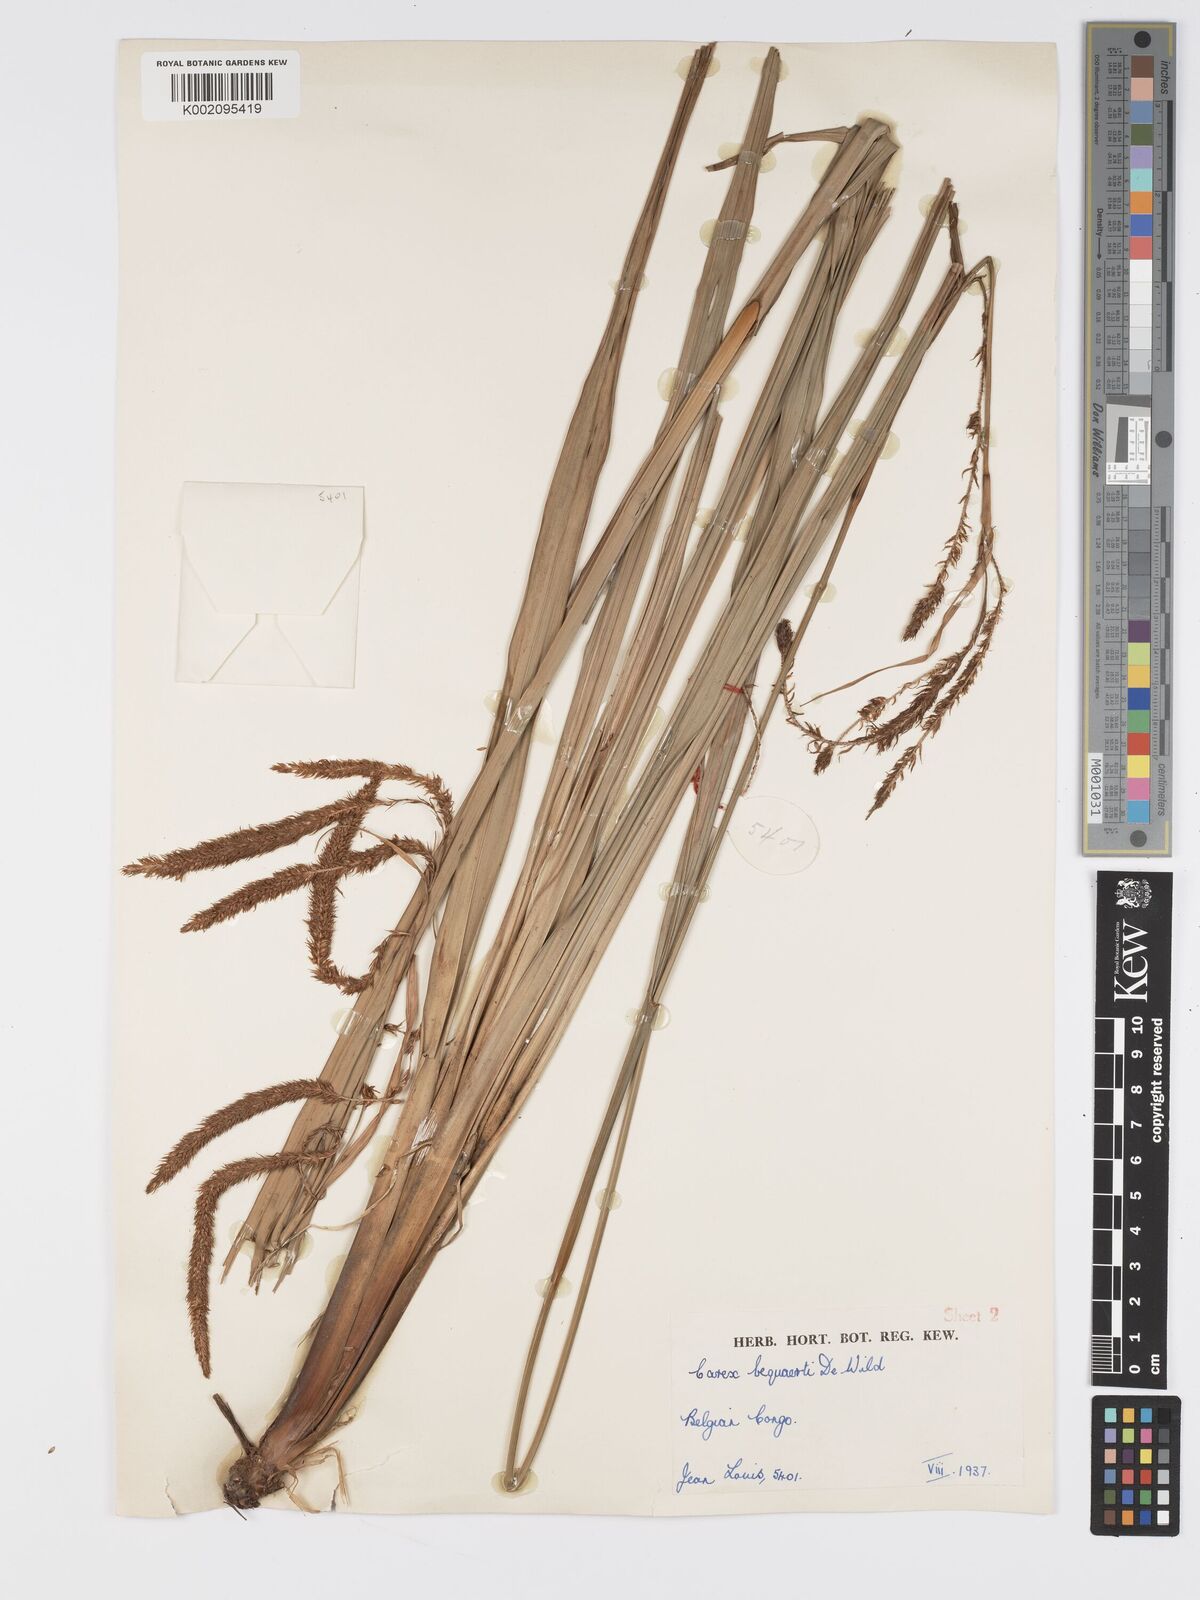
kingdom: Plantae
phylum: Tracheophyta
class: Liliopsida
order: Poales
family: Cyperaceae
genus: Carex
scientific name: Carex bequaertii
